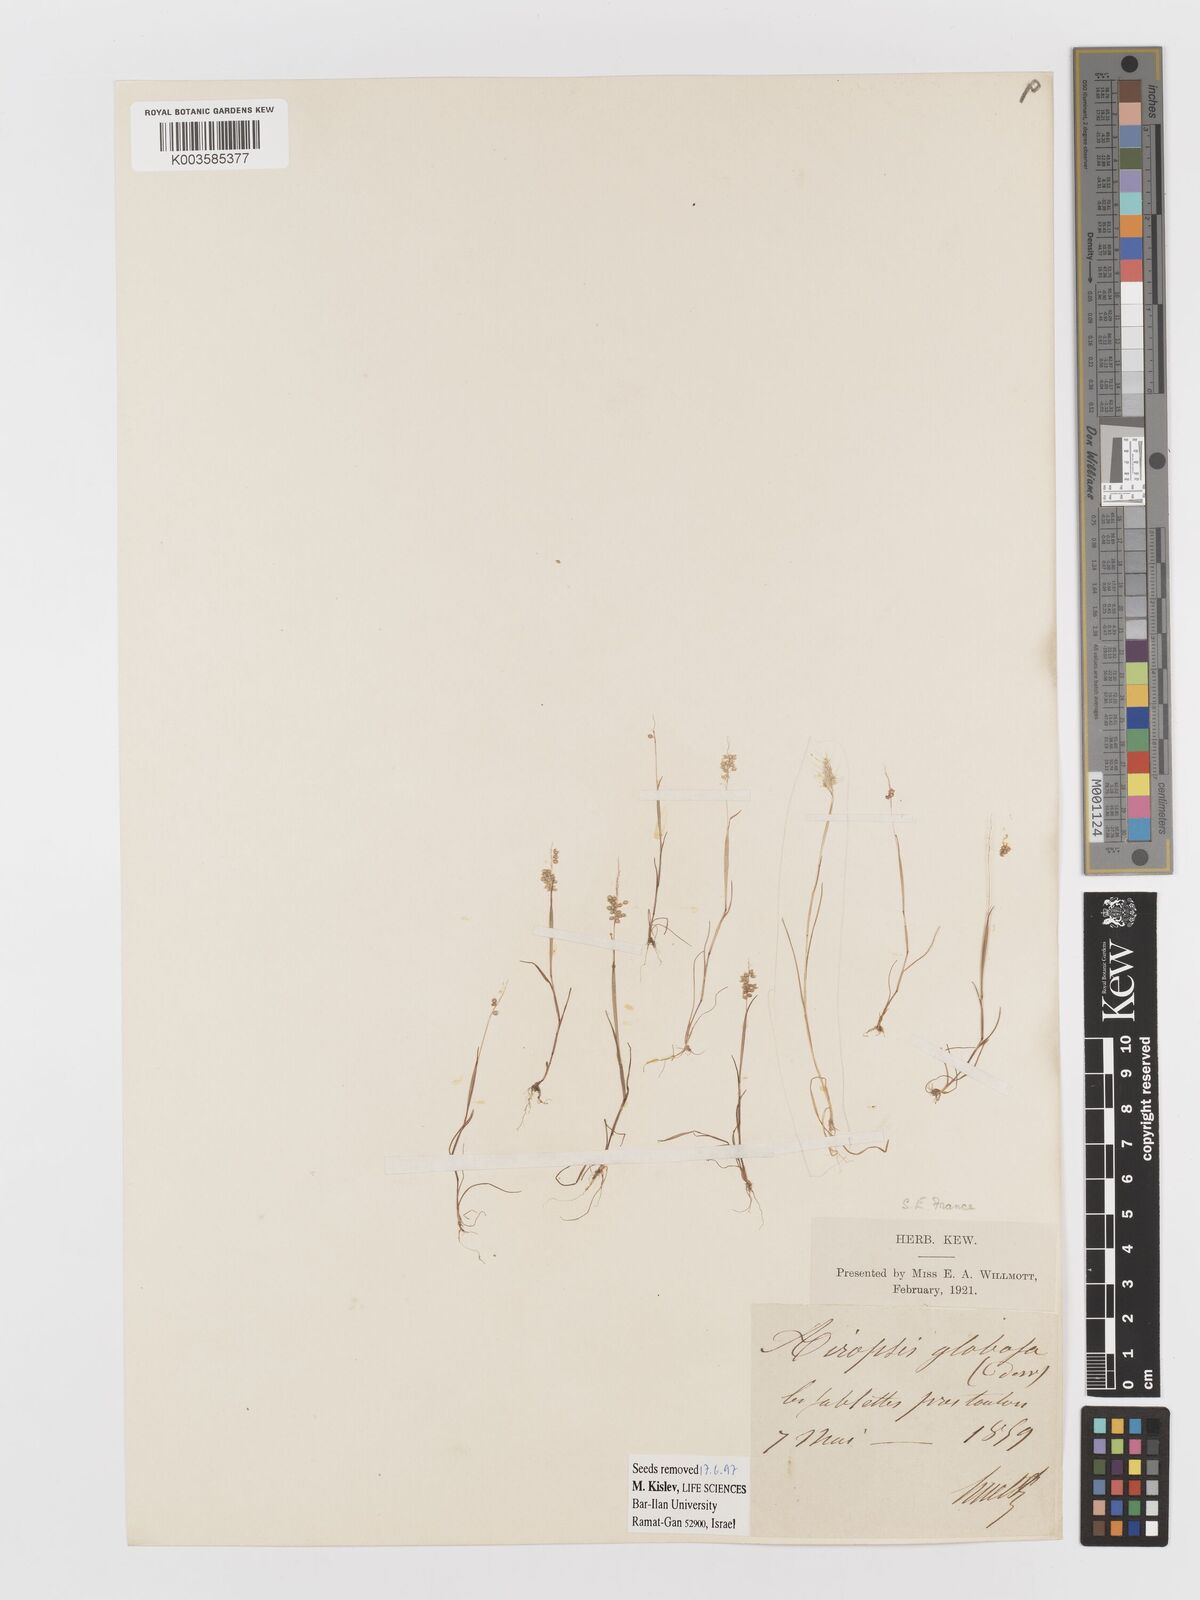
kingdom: Plantae
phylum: Tracheophyta
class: Liliopsida
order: Poales
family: Poaceae
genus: Airopsis
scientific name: Airopsis tenella
